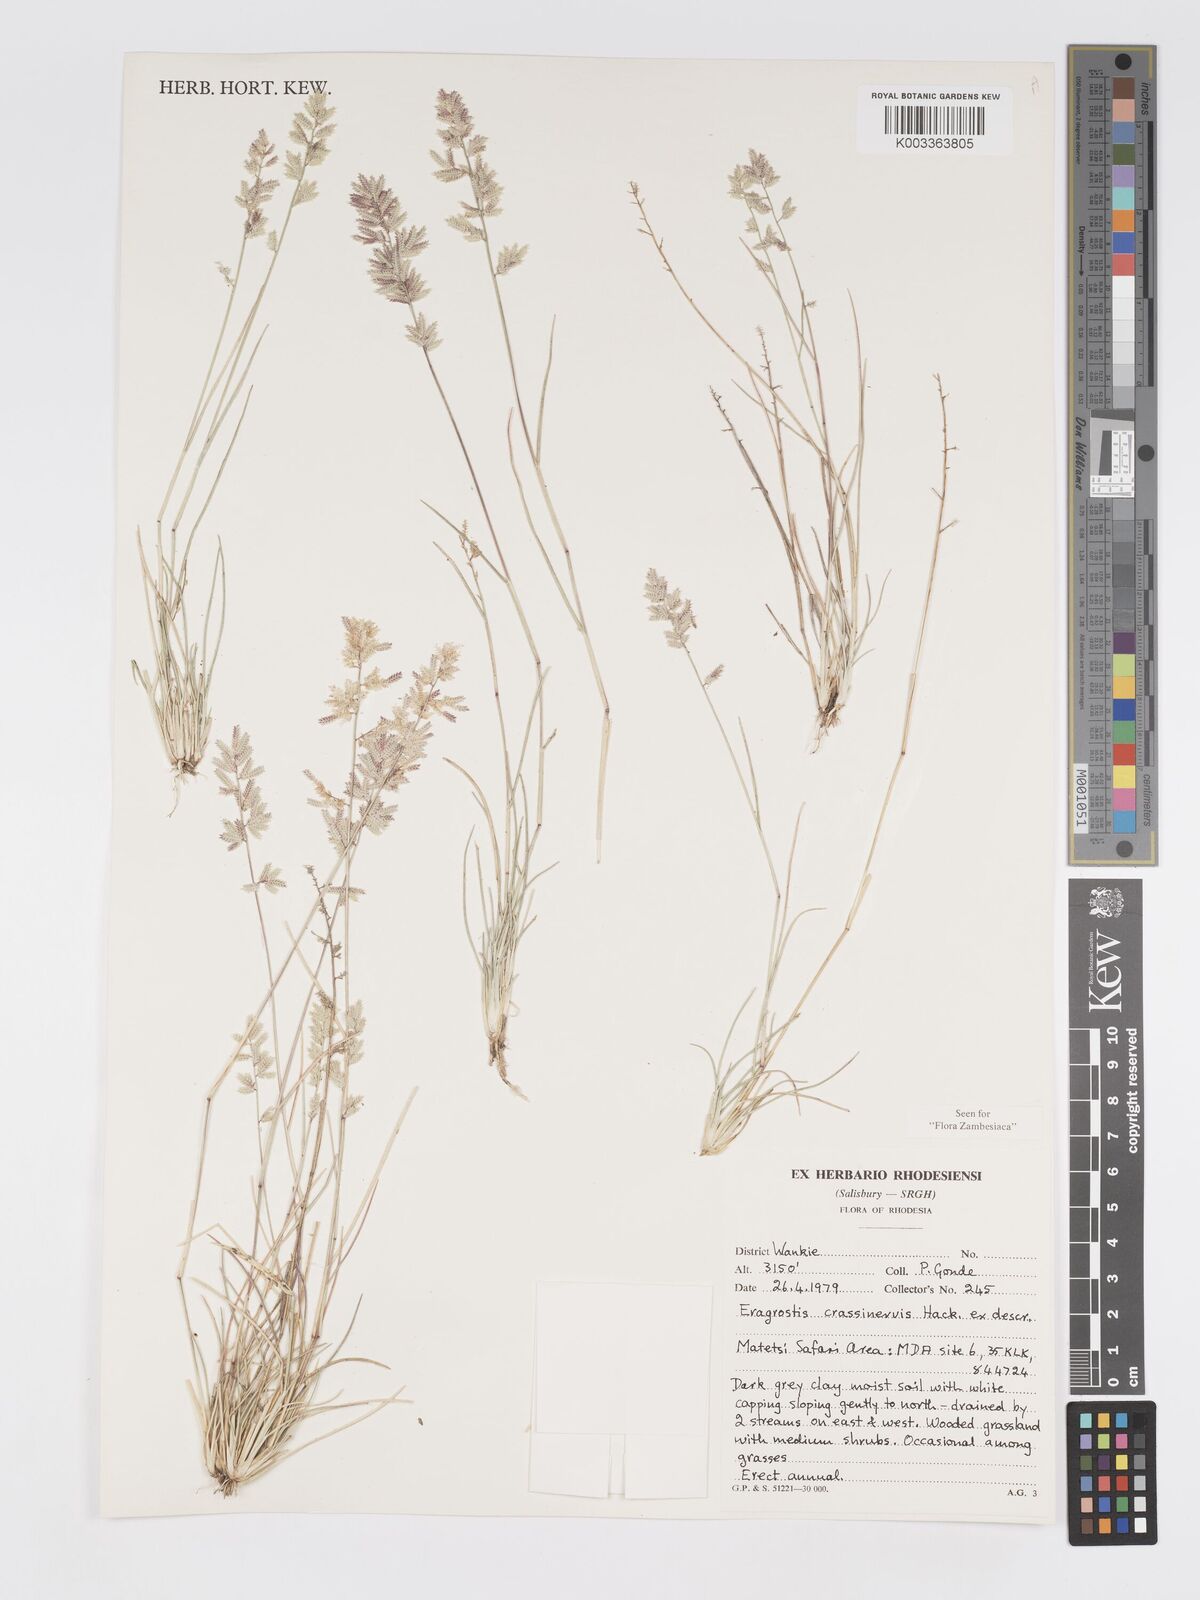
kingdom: Plantae
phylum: Tracheophyta
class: Liliopsida
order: Poales
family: Poaceae
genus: Eragrostis
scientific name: Eragrostis crassinervis
